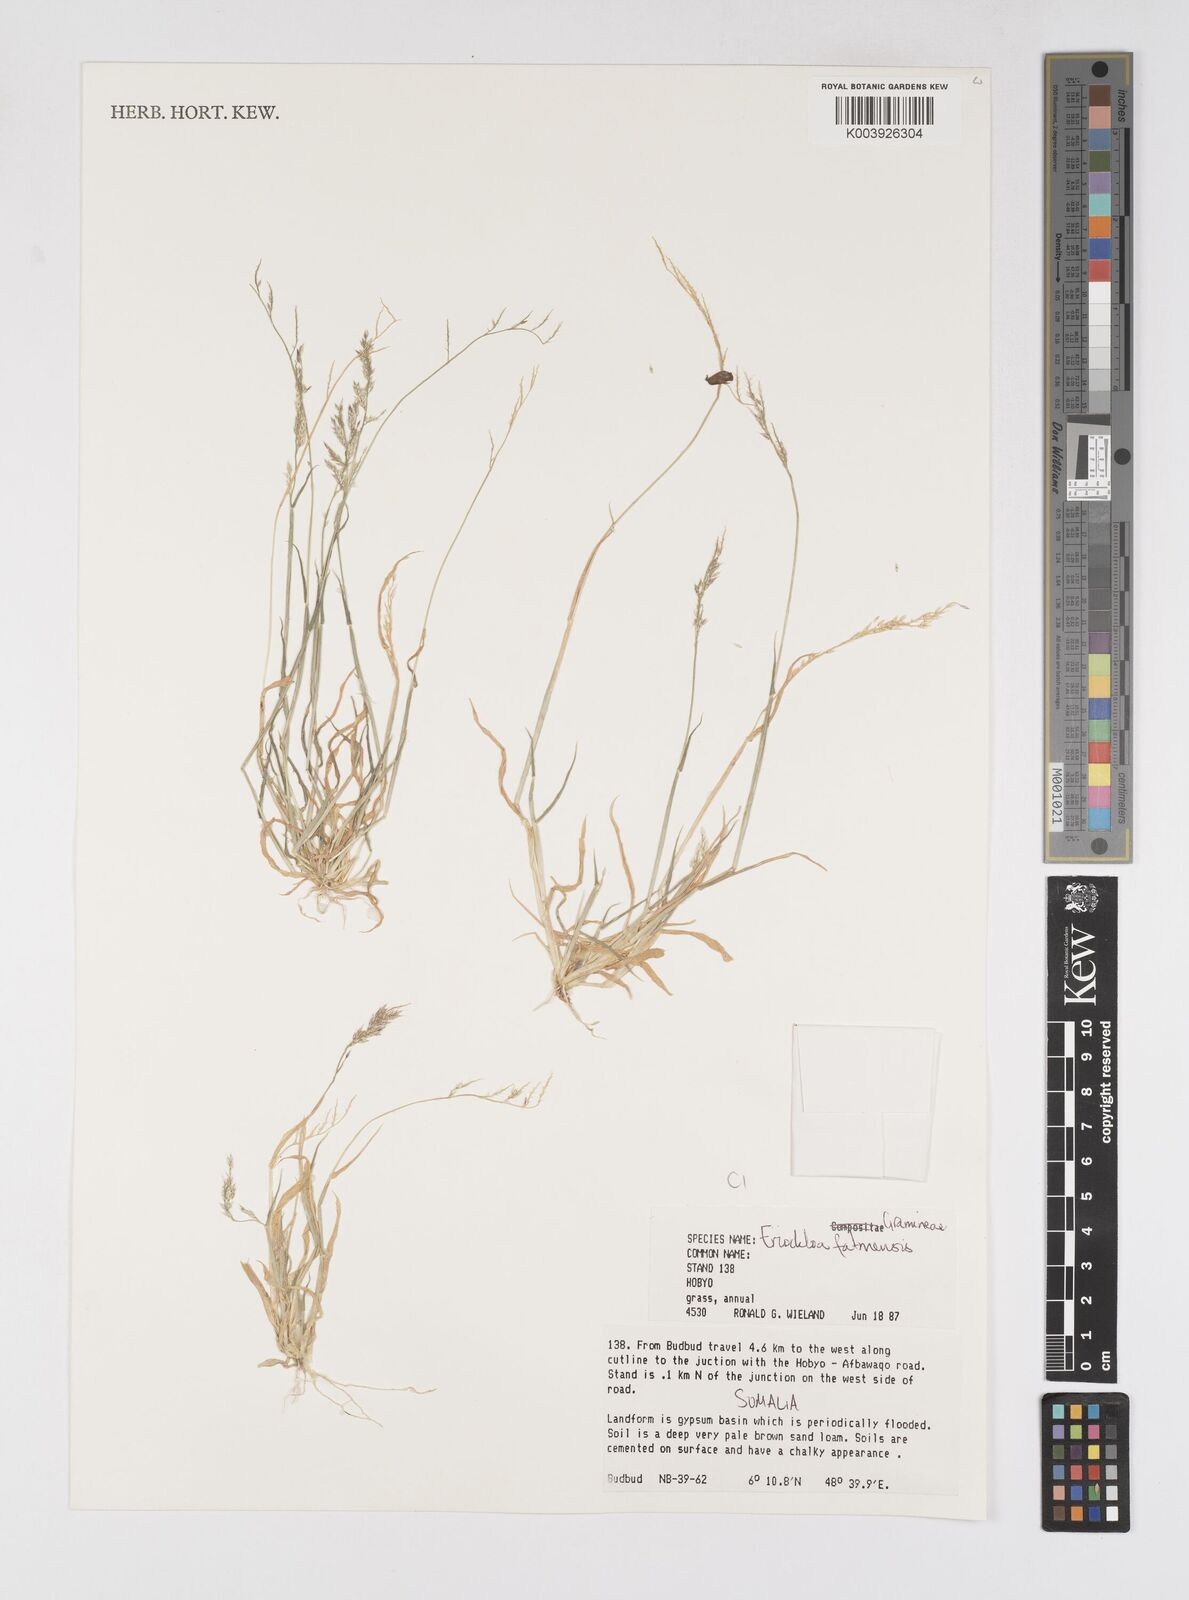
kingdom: Plantae
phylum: Tracheophyta
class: Liliopsida
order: Poales
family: Poaceae
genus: Eriochloa
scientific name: Eriochloa barbatus
